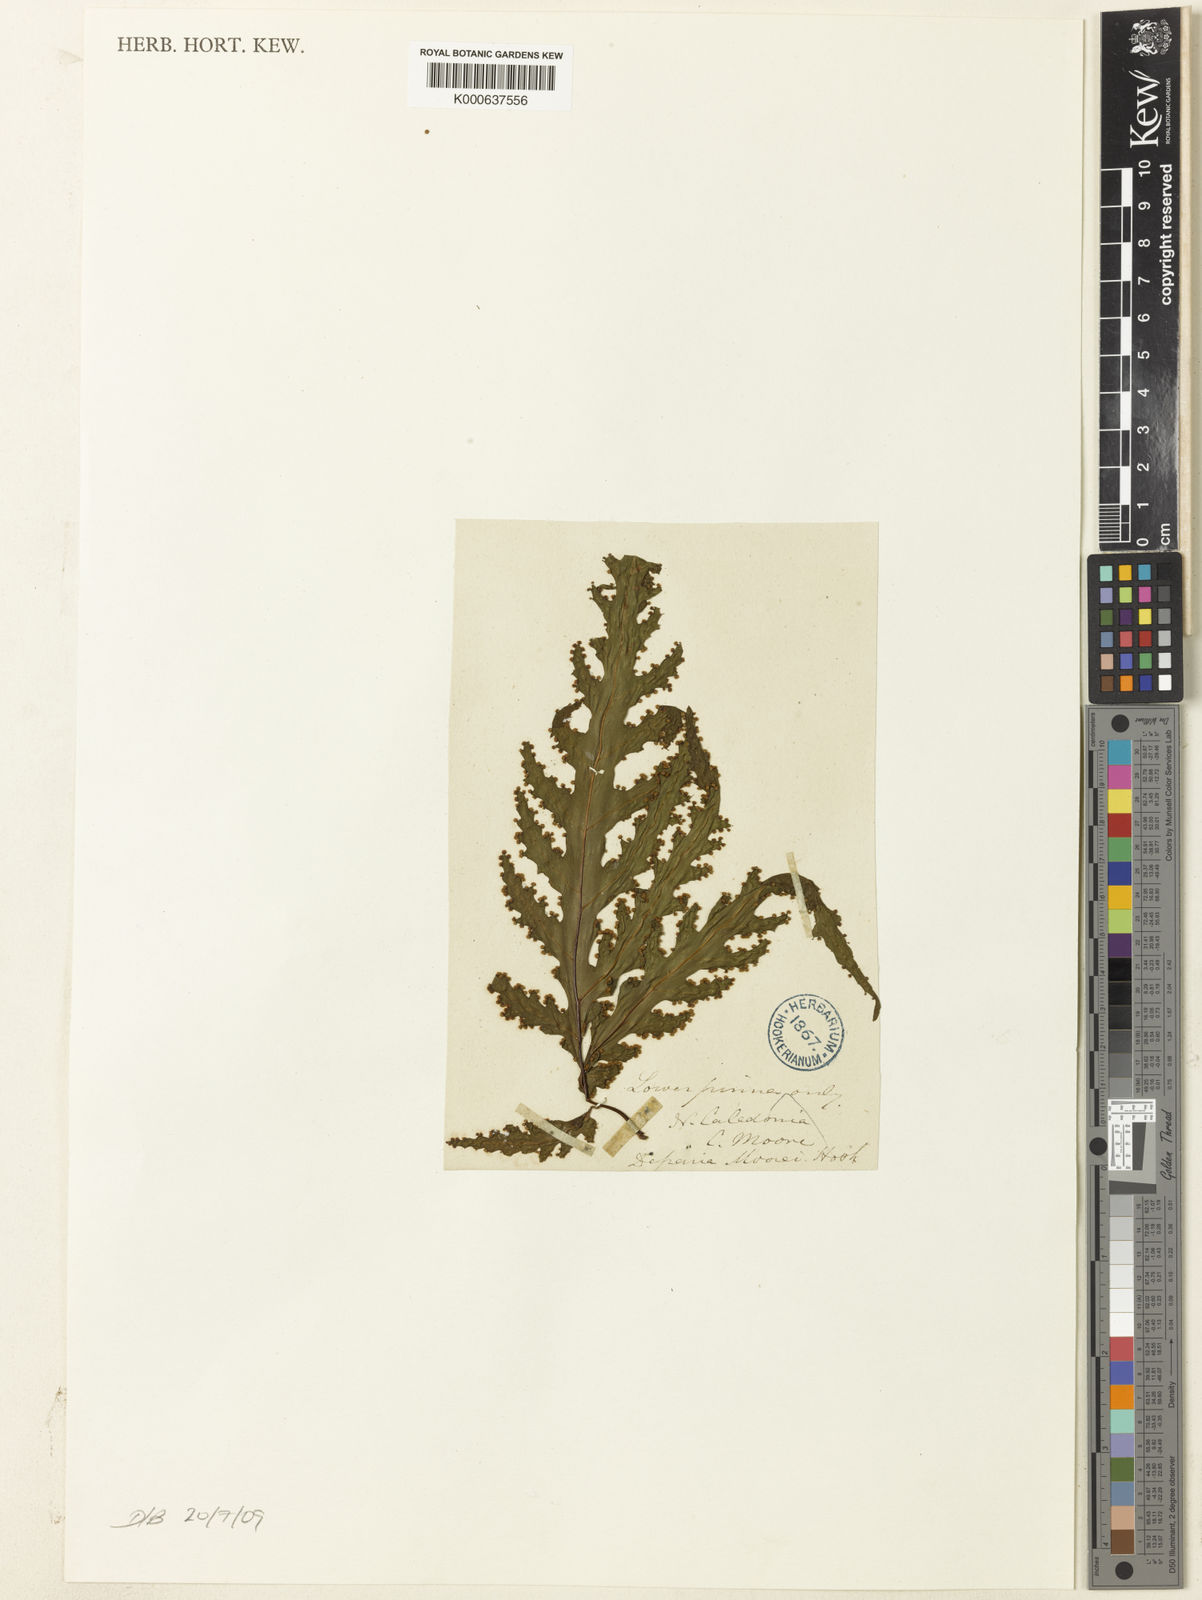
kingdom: Plantae
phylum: Tracheophyta
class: Polypodiopsida
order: Polypodiales
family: Tectariaceae
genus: Tectaria
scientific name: Tectaria moorei
